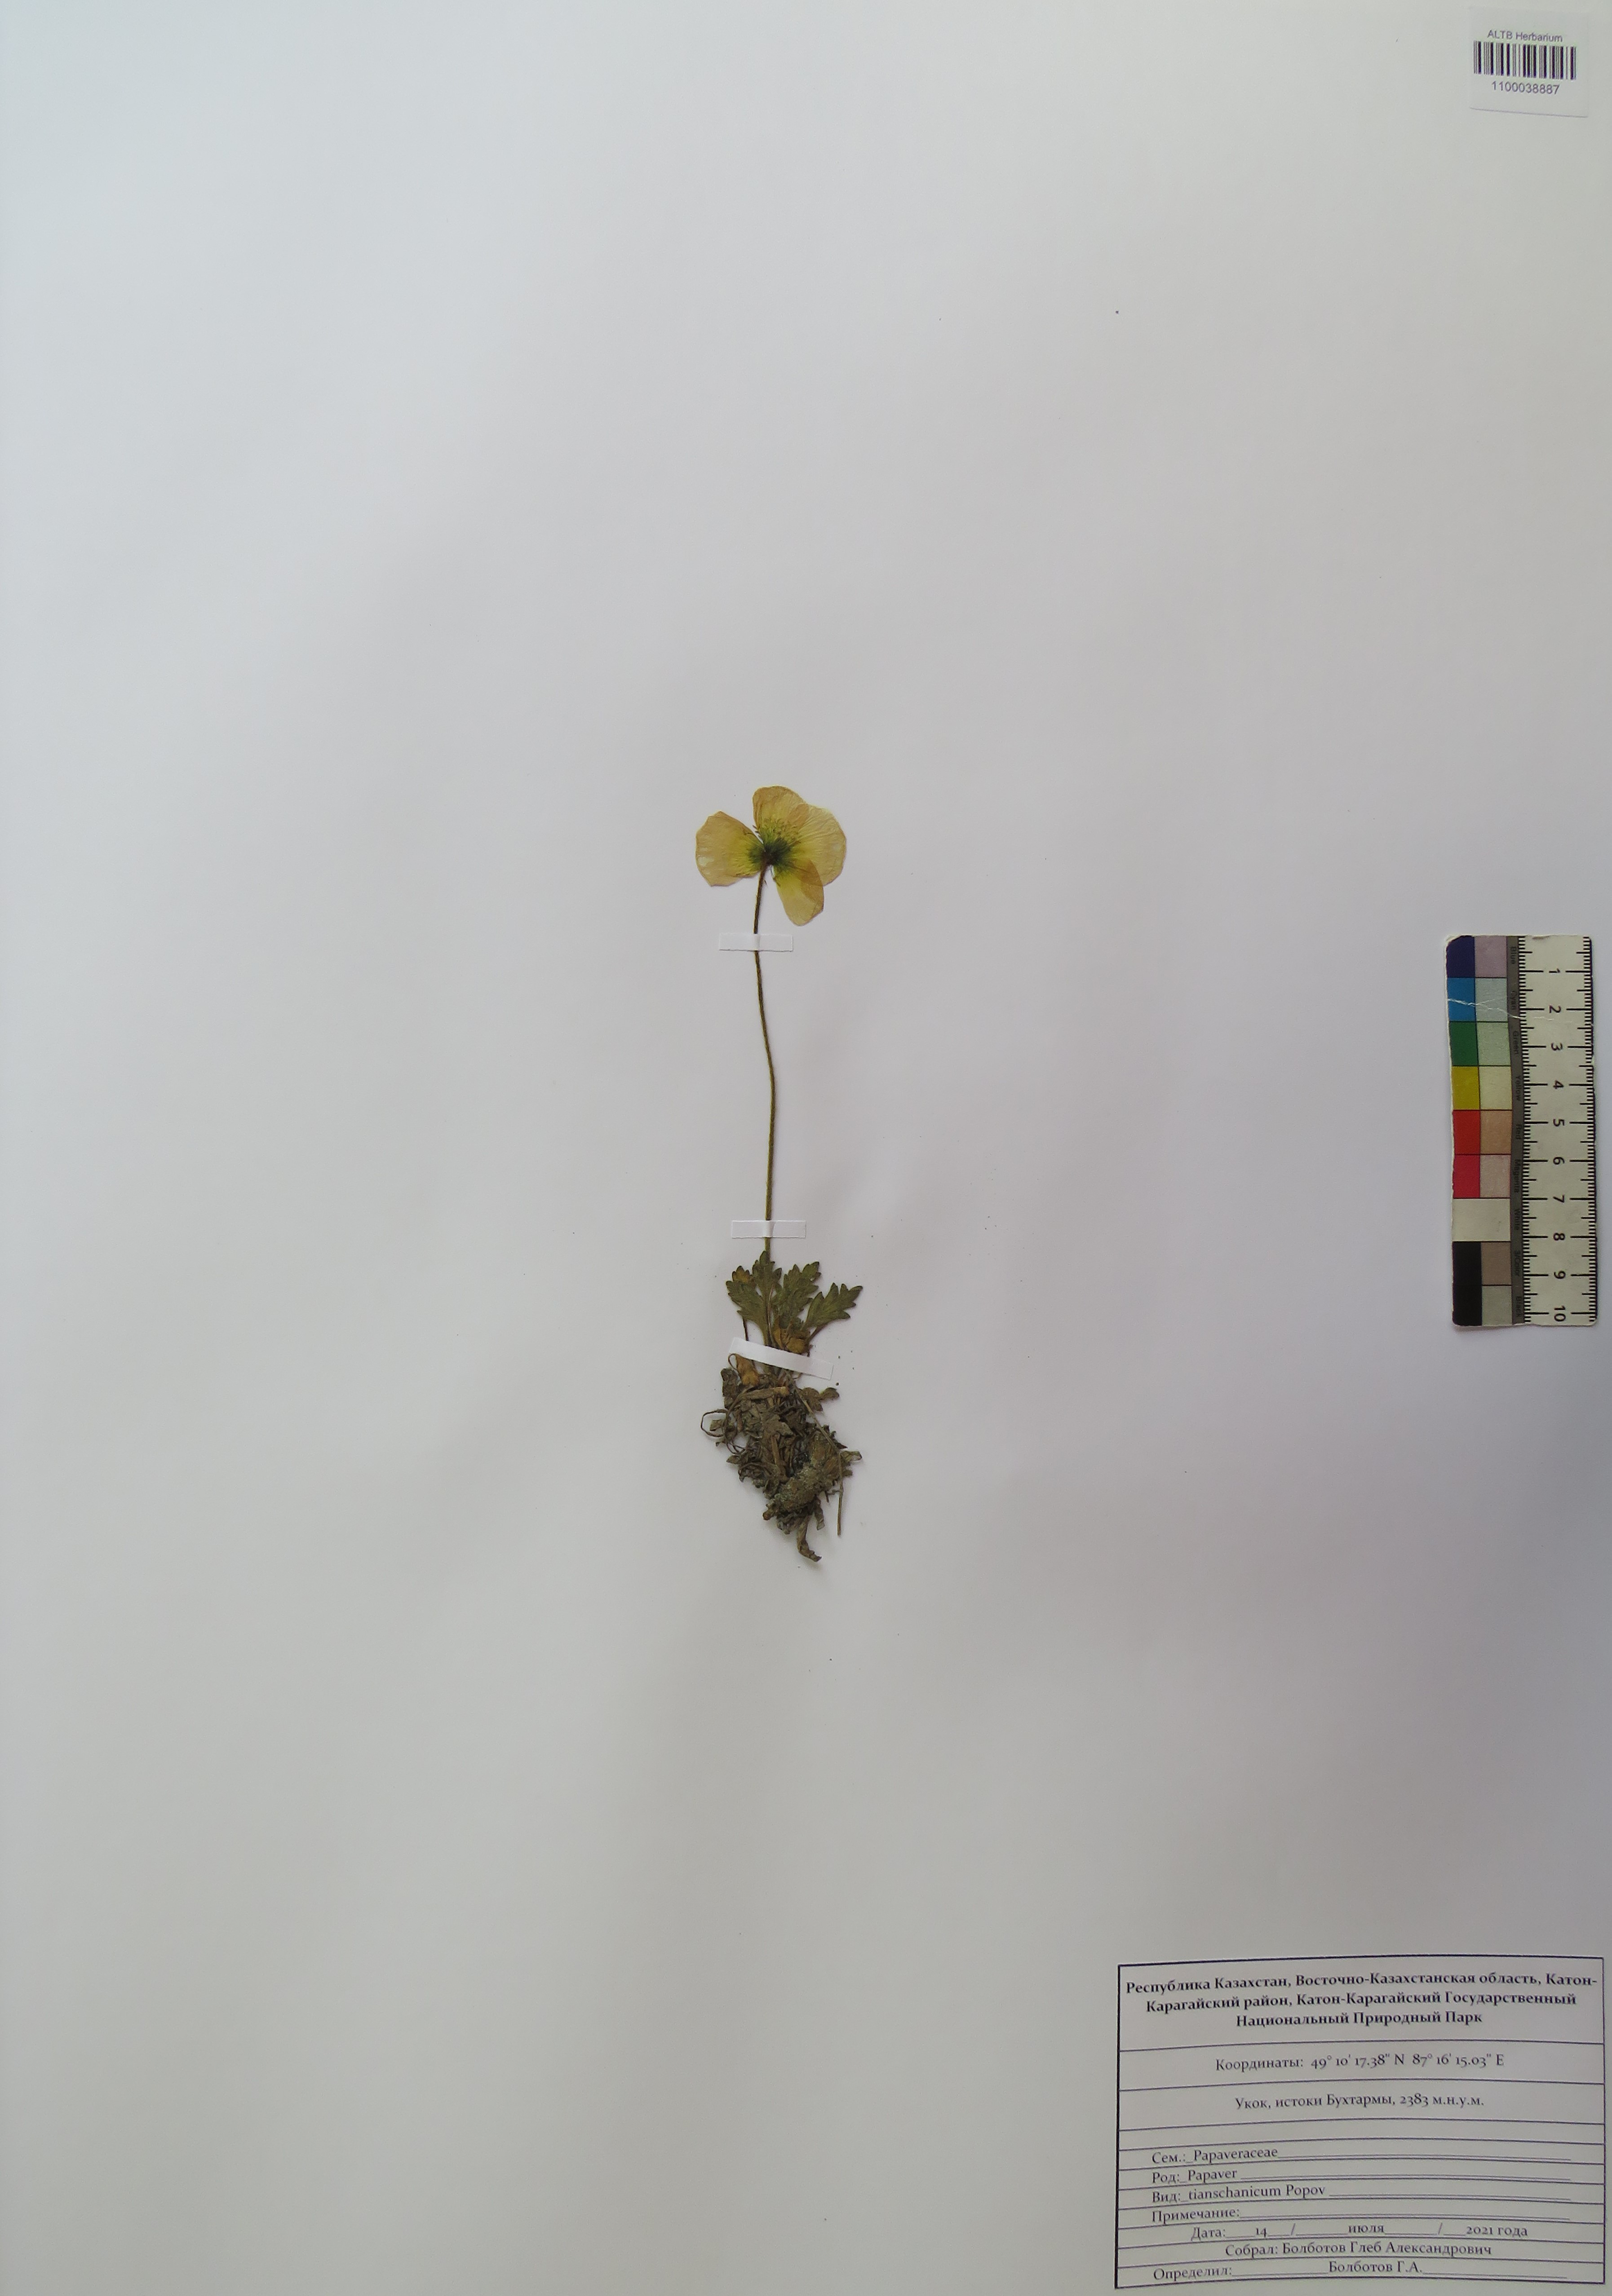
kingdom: Plantae
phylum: Tracheophyta
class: Magnoliopsida
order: Ranunculales
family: Papaveraceae
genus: Papaver
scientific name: Papaver canescens
